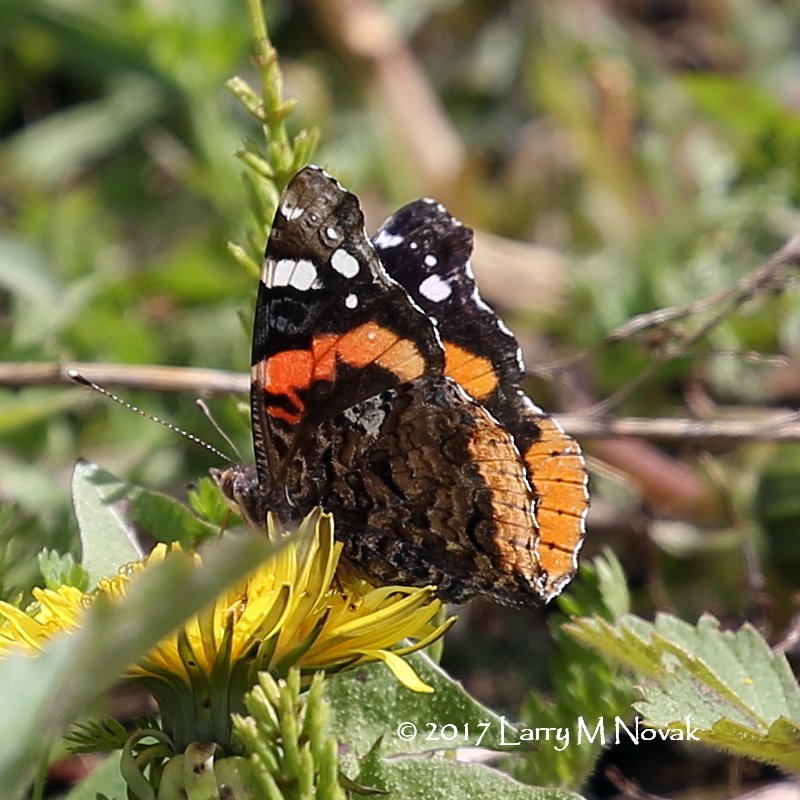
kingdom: Animalia
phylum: Arthropoda
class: Insecta
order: Lepidoptera
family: Nymphalidae
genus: Vanessa
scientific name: Vanessa atalanta
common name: Red Admiral
